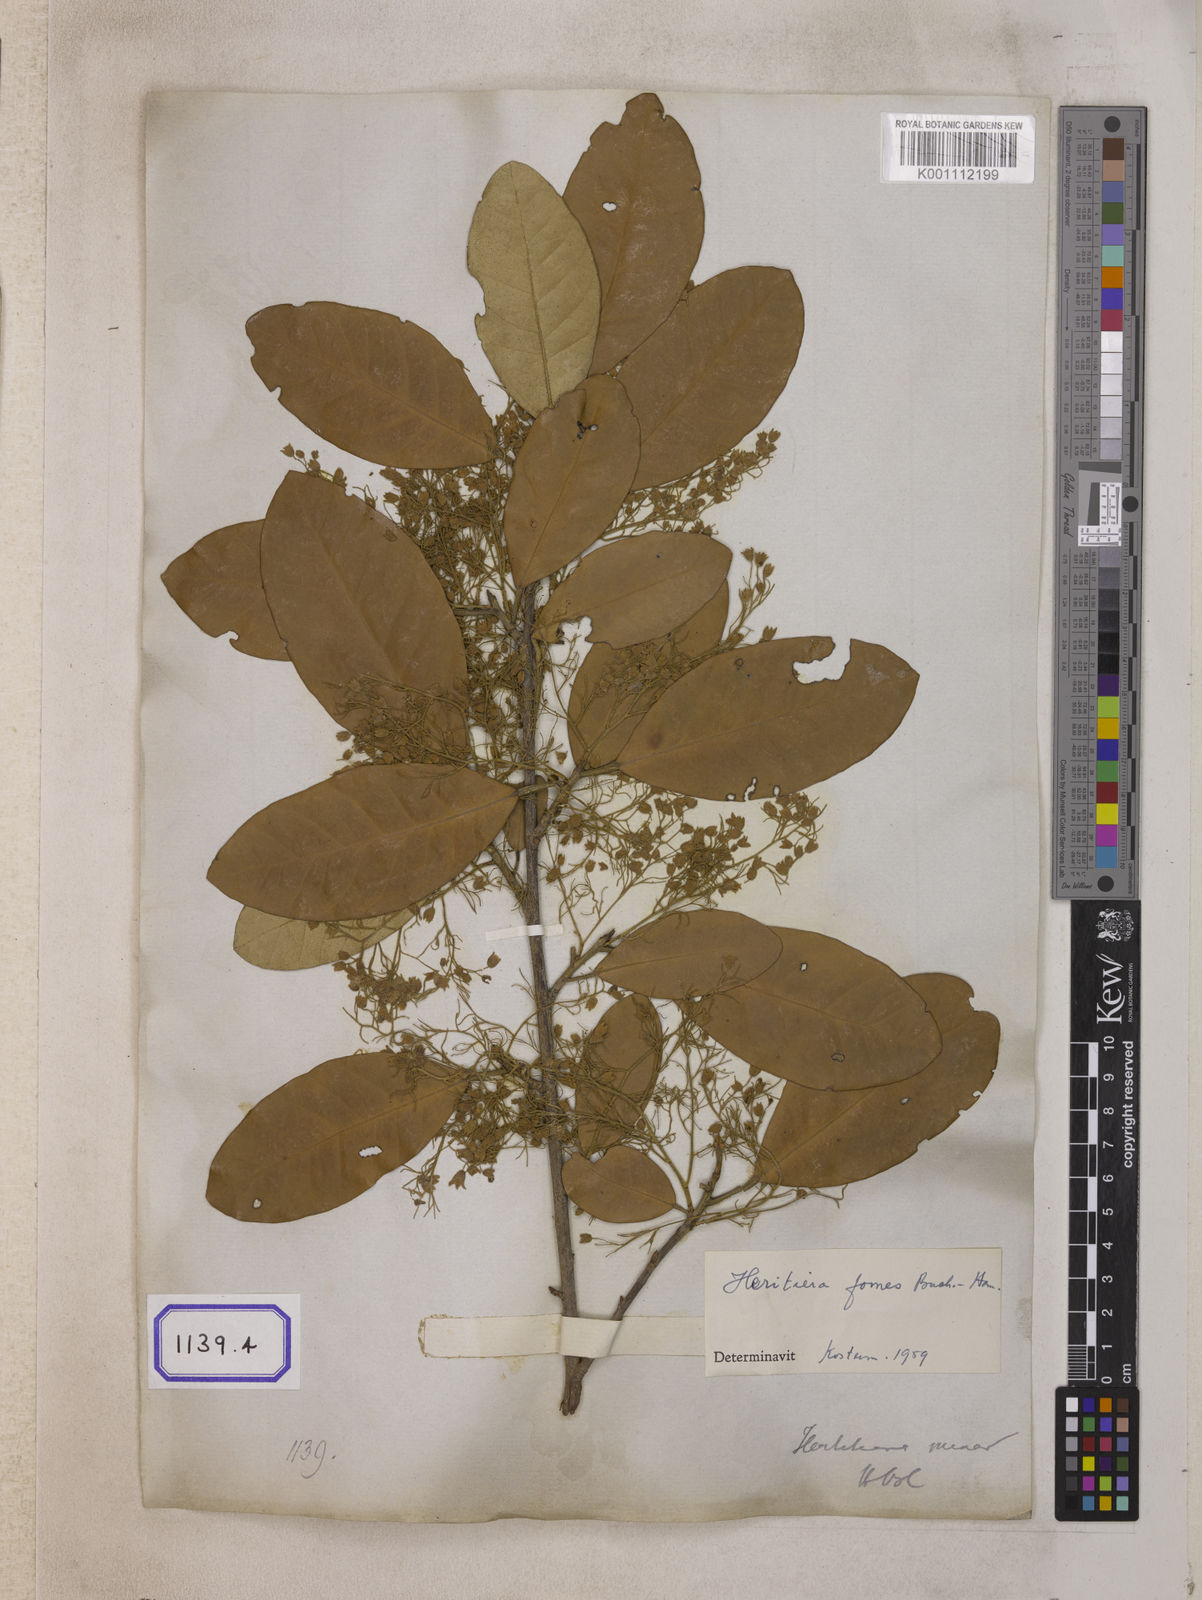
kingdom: Plantae
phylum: Tracheophyta
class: Magnoliopsida
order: Malvales
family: Malvaceae
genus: Heritiera
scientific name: Heritiera
